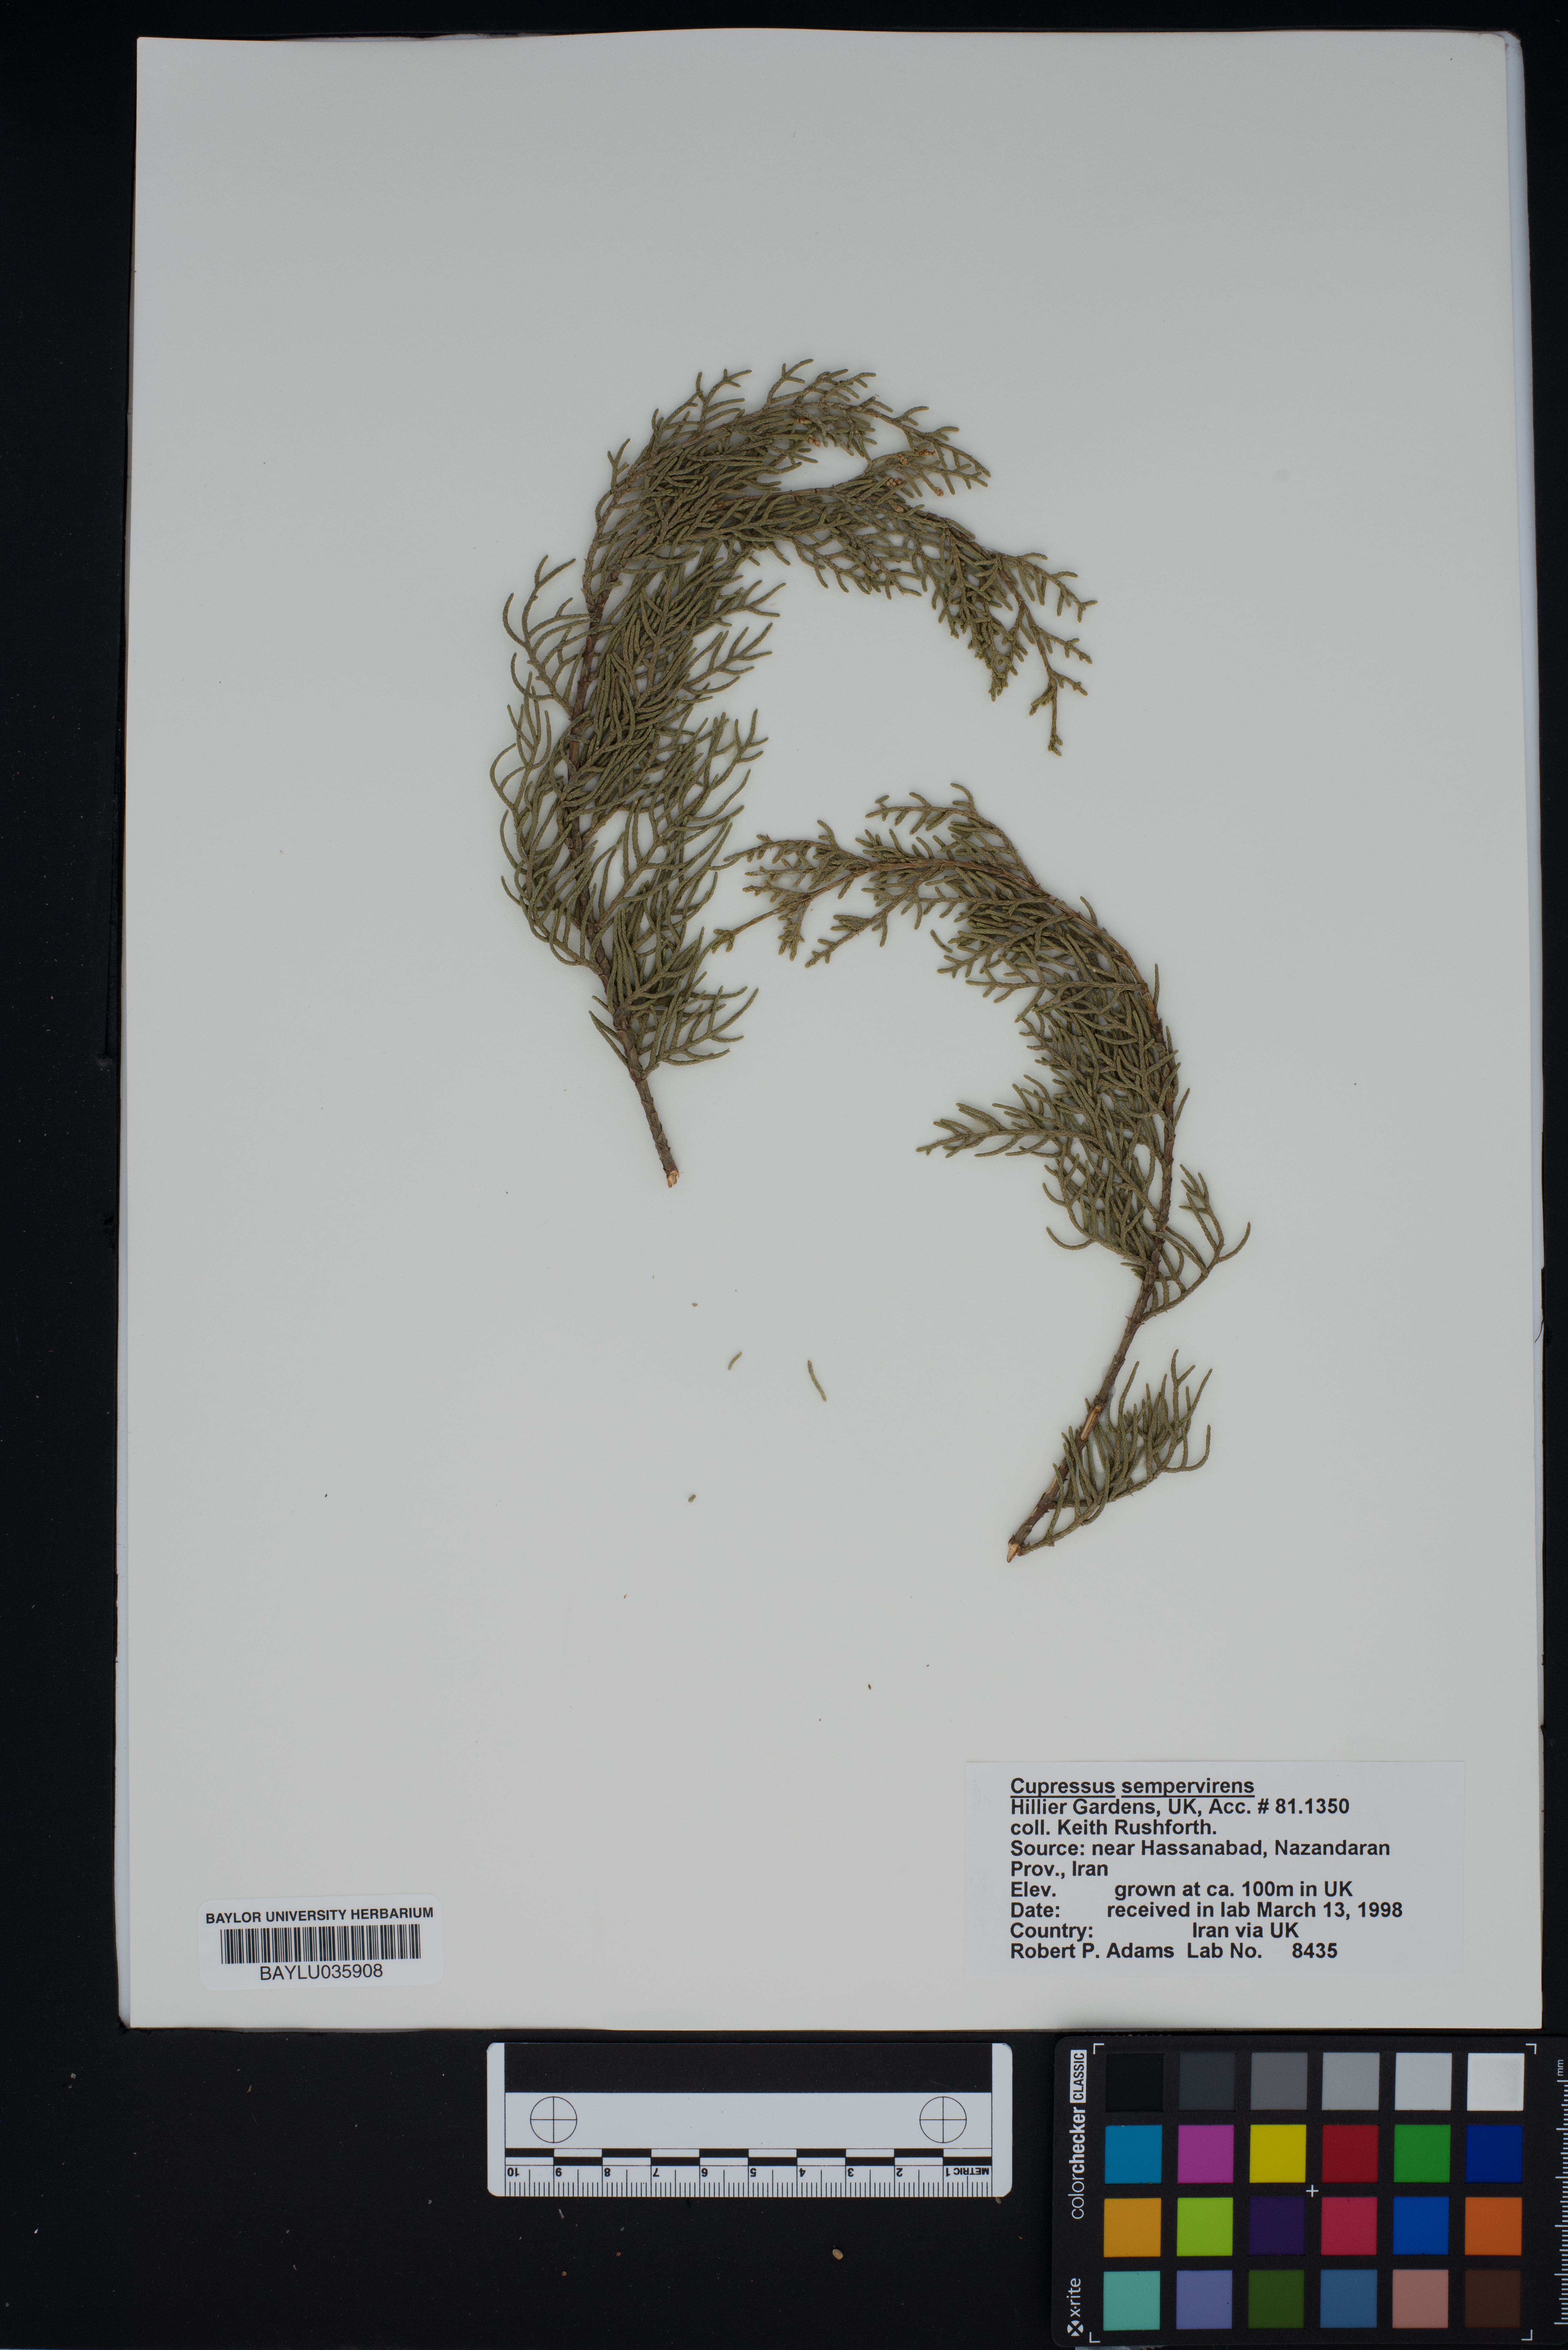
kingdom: Plantae
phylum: Tracheophyta
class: Pinopsida
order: Pinales
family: Cupressaceae
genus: Cupressus
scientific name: Cupressus sempervirens
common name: Italian cypress
